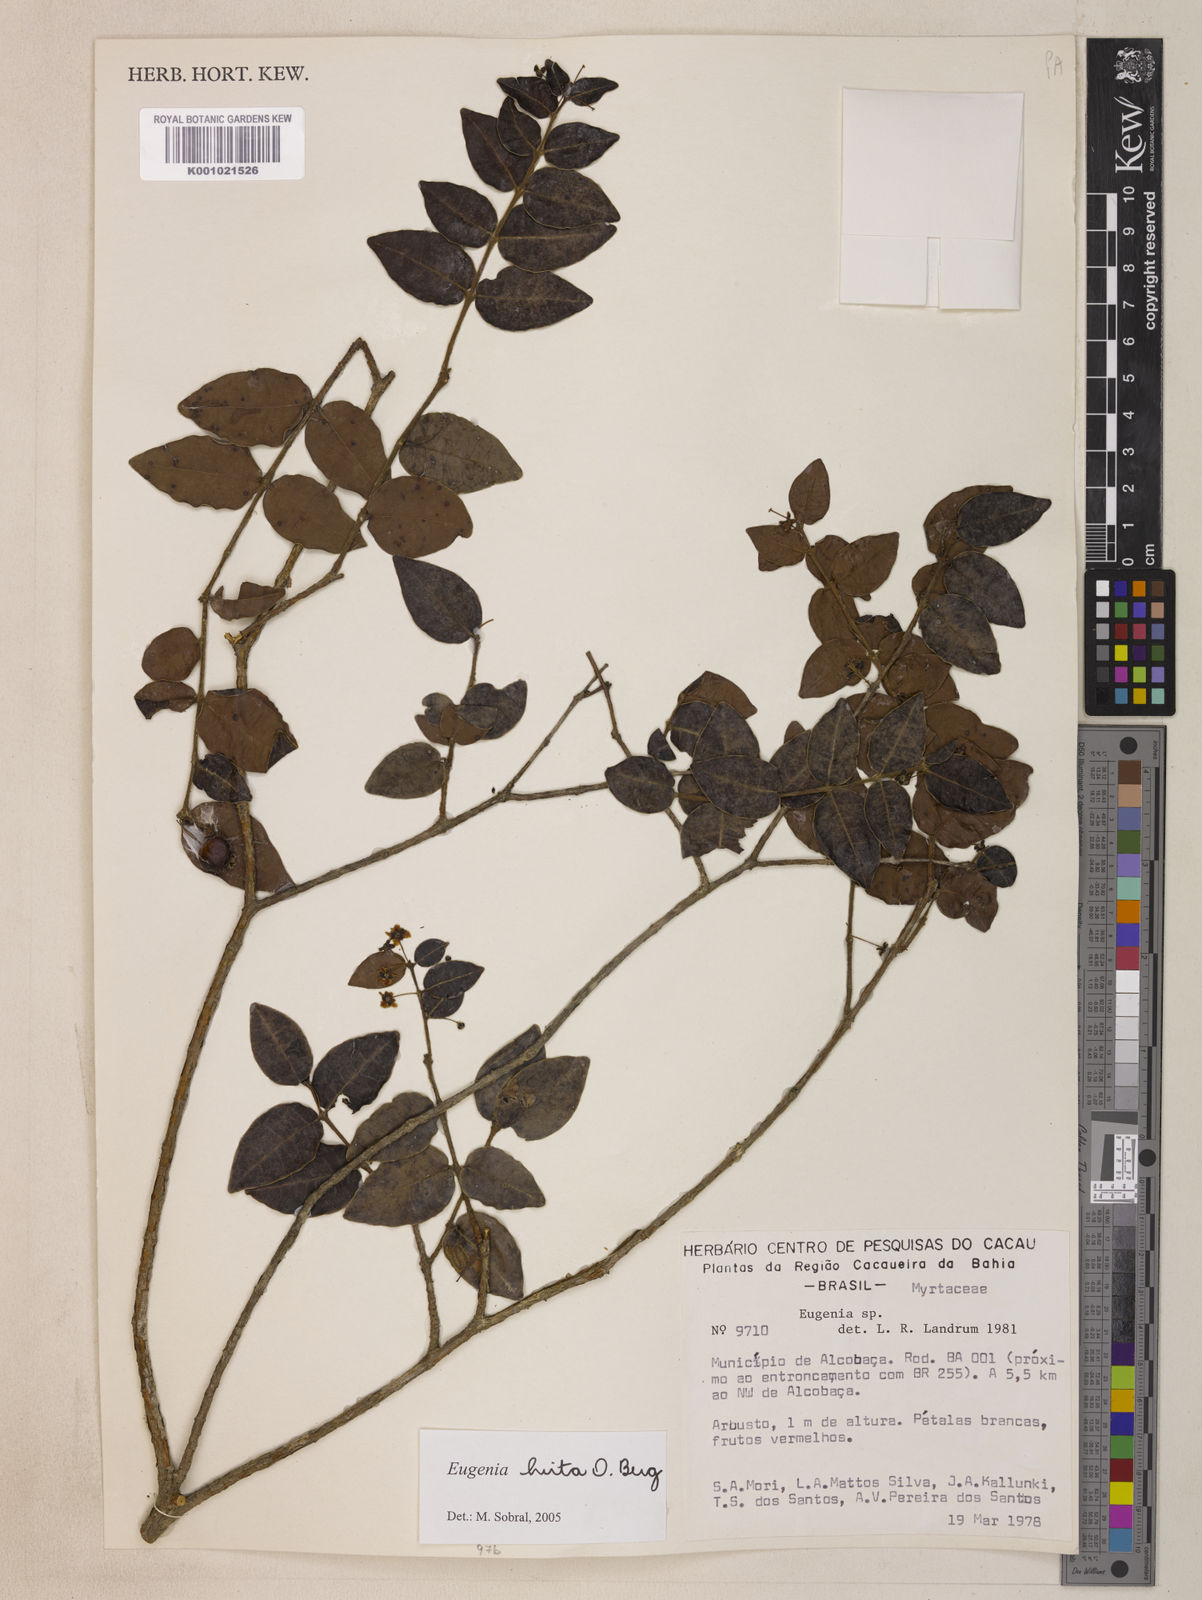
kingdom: Plantae
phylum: Tracheophyta
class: Magnoliopsida
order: Myrtales
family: Myrtaceae
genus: Eugenia
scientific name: Eugenia hirta
